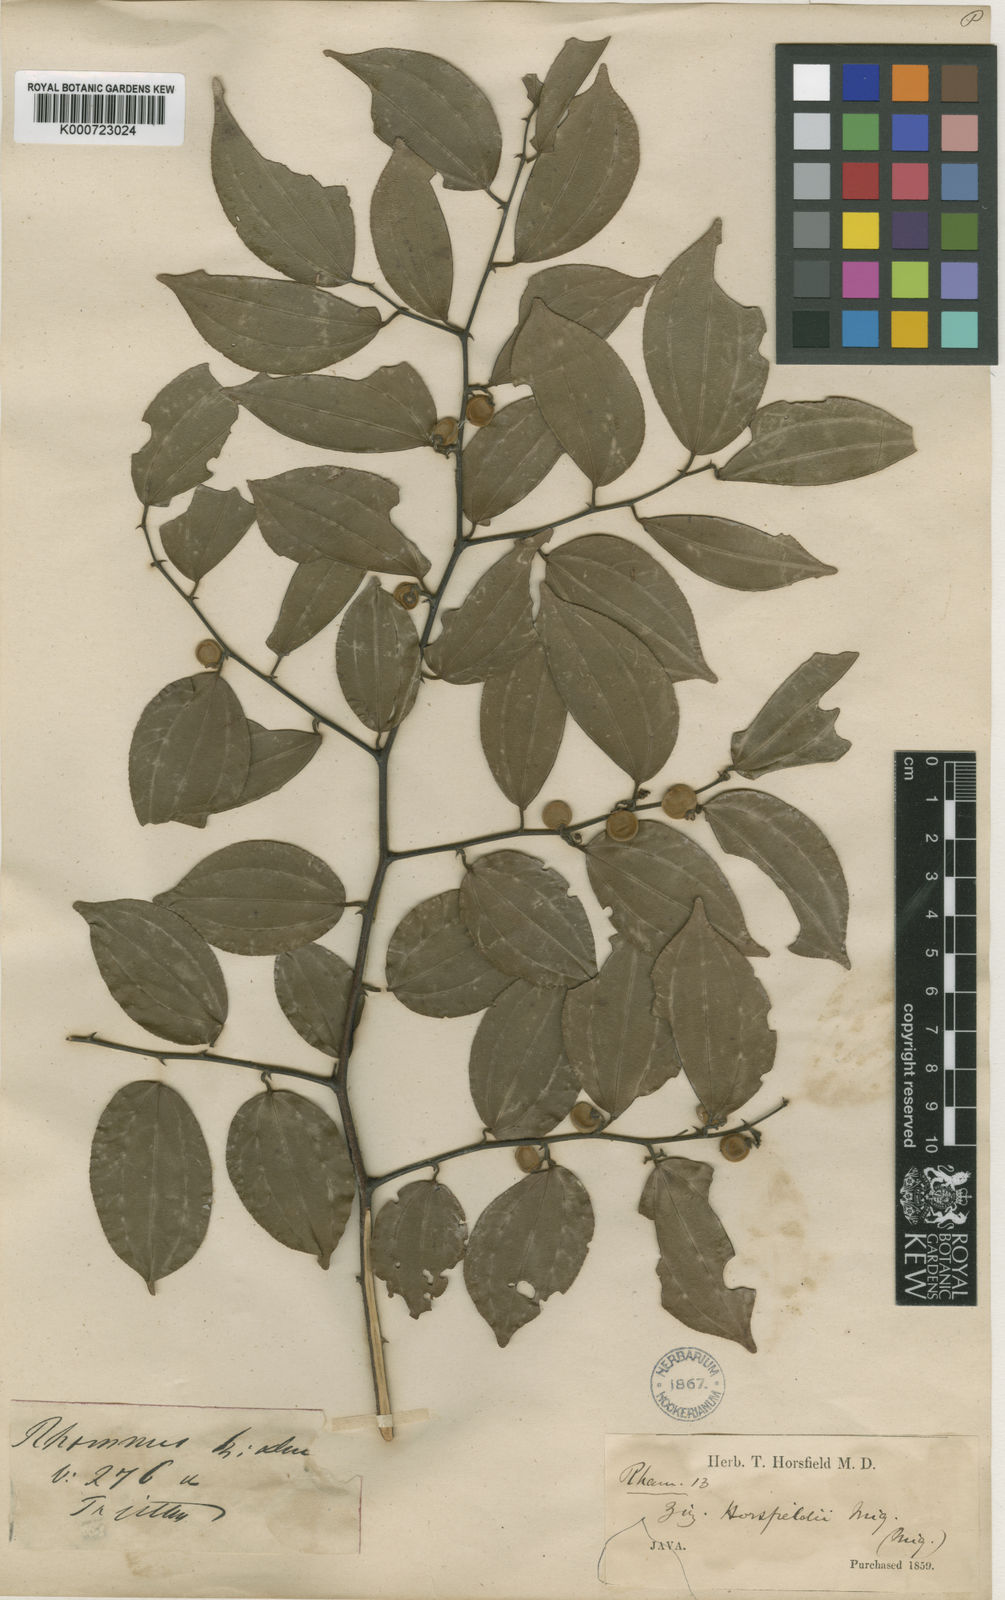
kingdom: Plantae
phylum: Tracheophyta
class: Magnoliopsida
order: Rosales
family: Rhamnaceae
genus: Ziziphus
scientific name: Ziziphus horsfieldii
